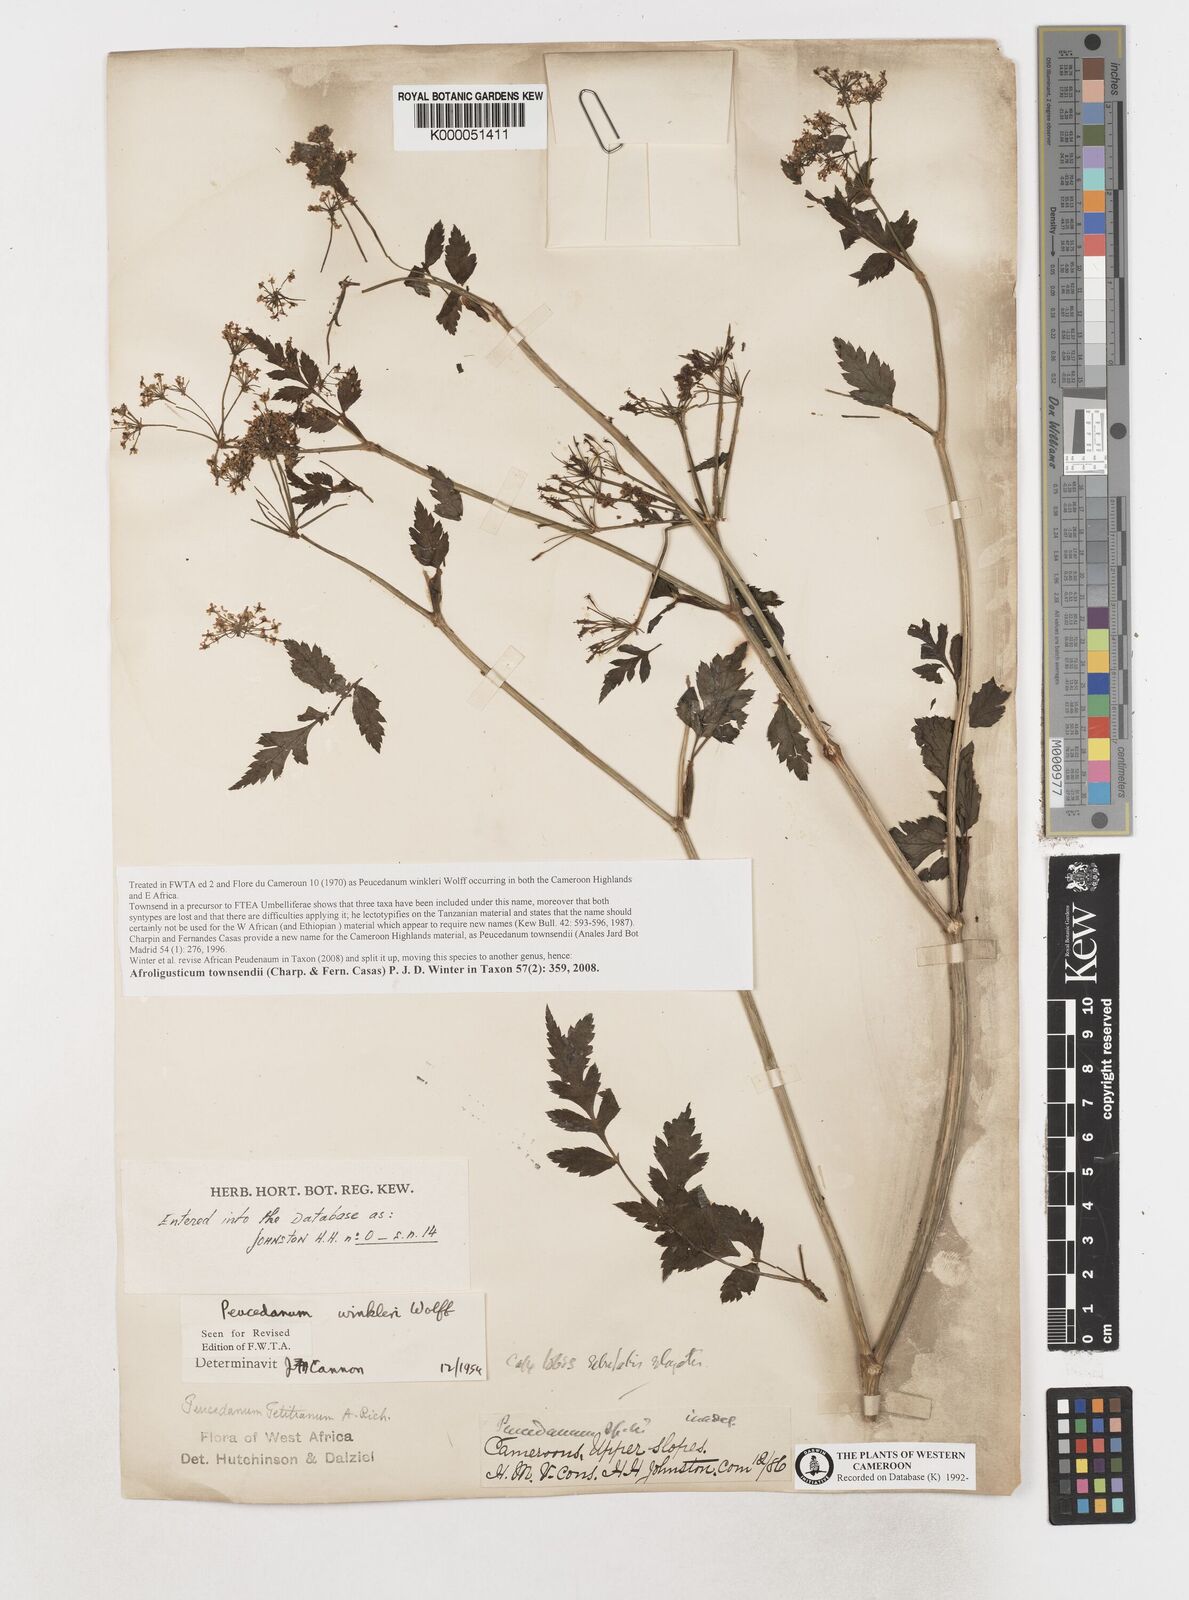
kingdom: Plantae
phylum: Tracheophyta
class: Magnoliopsida
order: Apiales
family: Apiaceae
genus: Afroligusticum
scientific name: Afroligusticum
